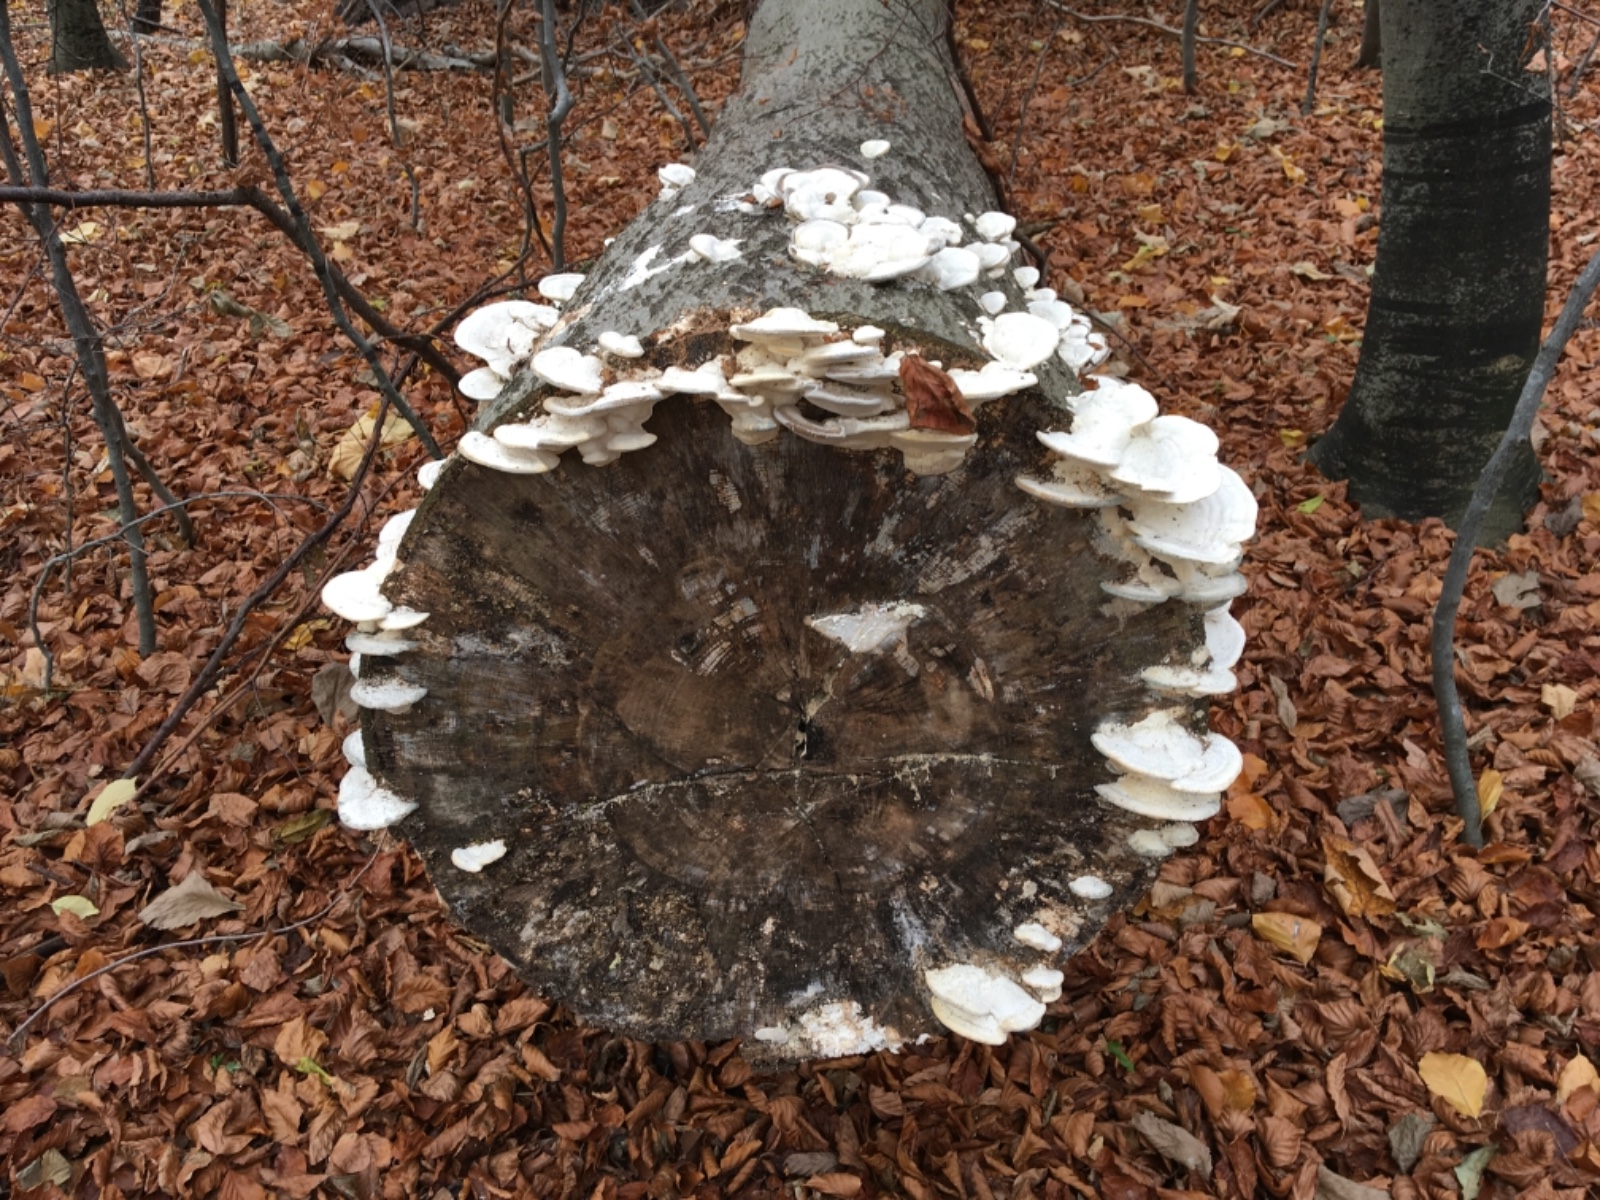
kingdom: Fungi
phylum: Basidiomycota
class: Agaricomycetes
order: Polyporales
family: Polyporaceae
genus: Trametes
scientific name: Trametes gibbosa
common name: puklet læderporesvamp
